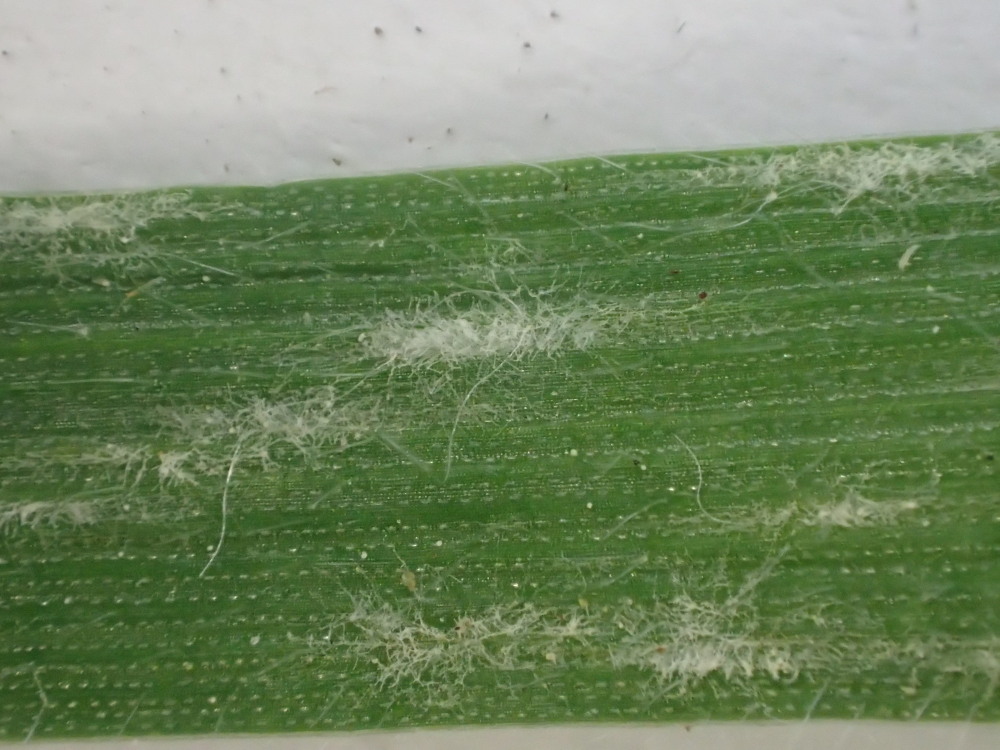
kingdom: Fungi
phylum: Ascomycota
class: Leotiomycetes
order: Helotiales
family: Erysiphaceae
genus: Blumeria
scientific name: Blumeria graminis
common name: græs-meldug
